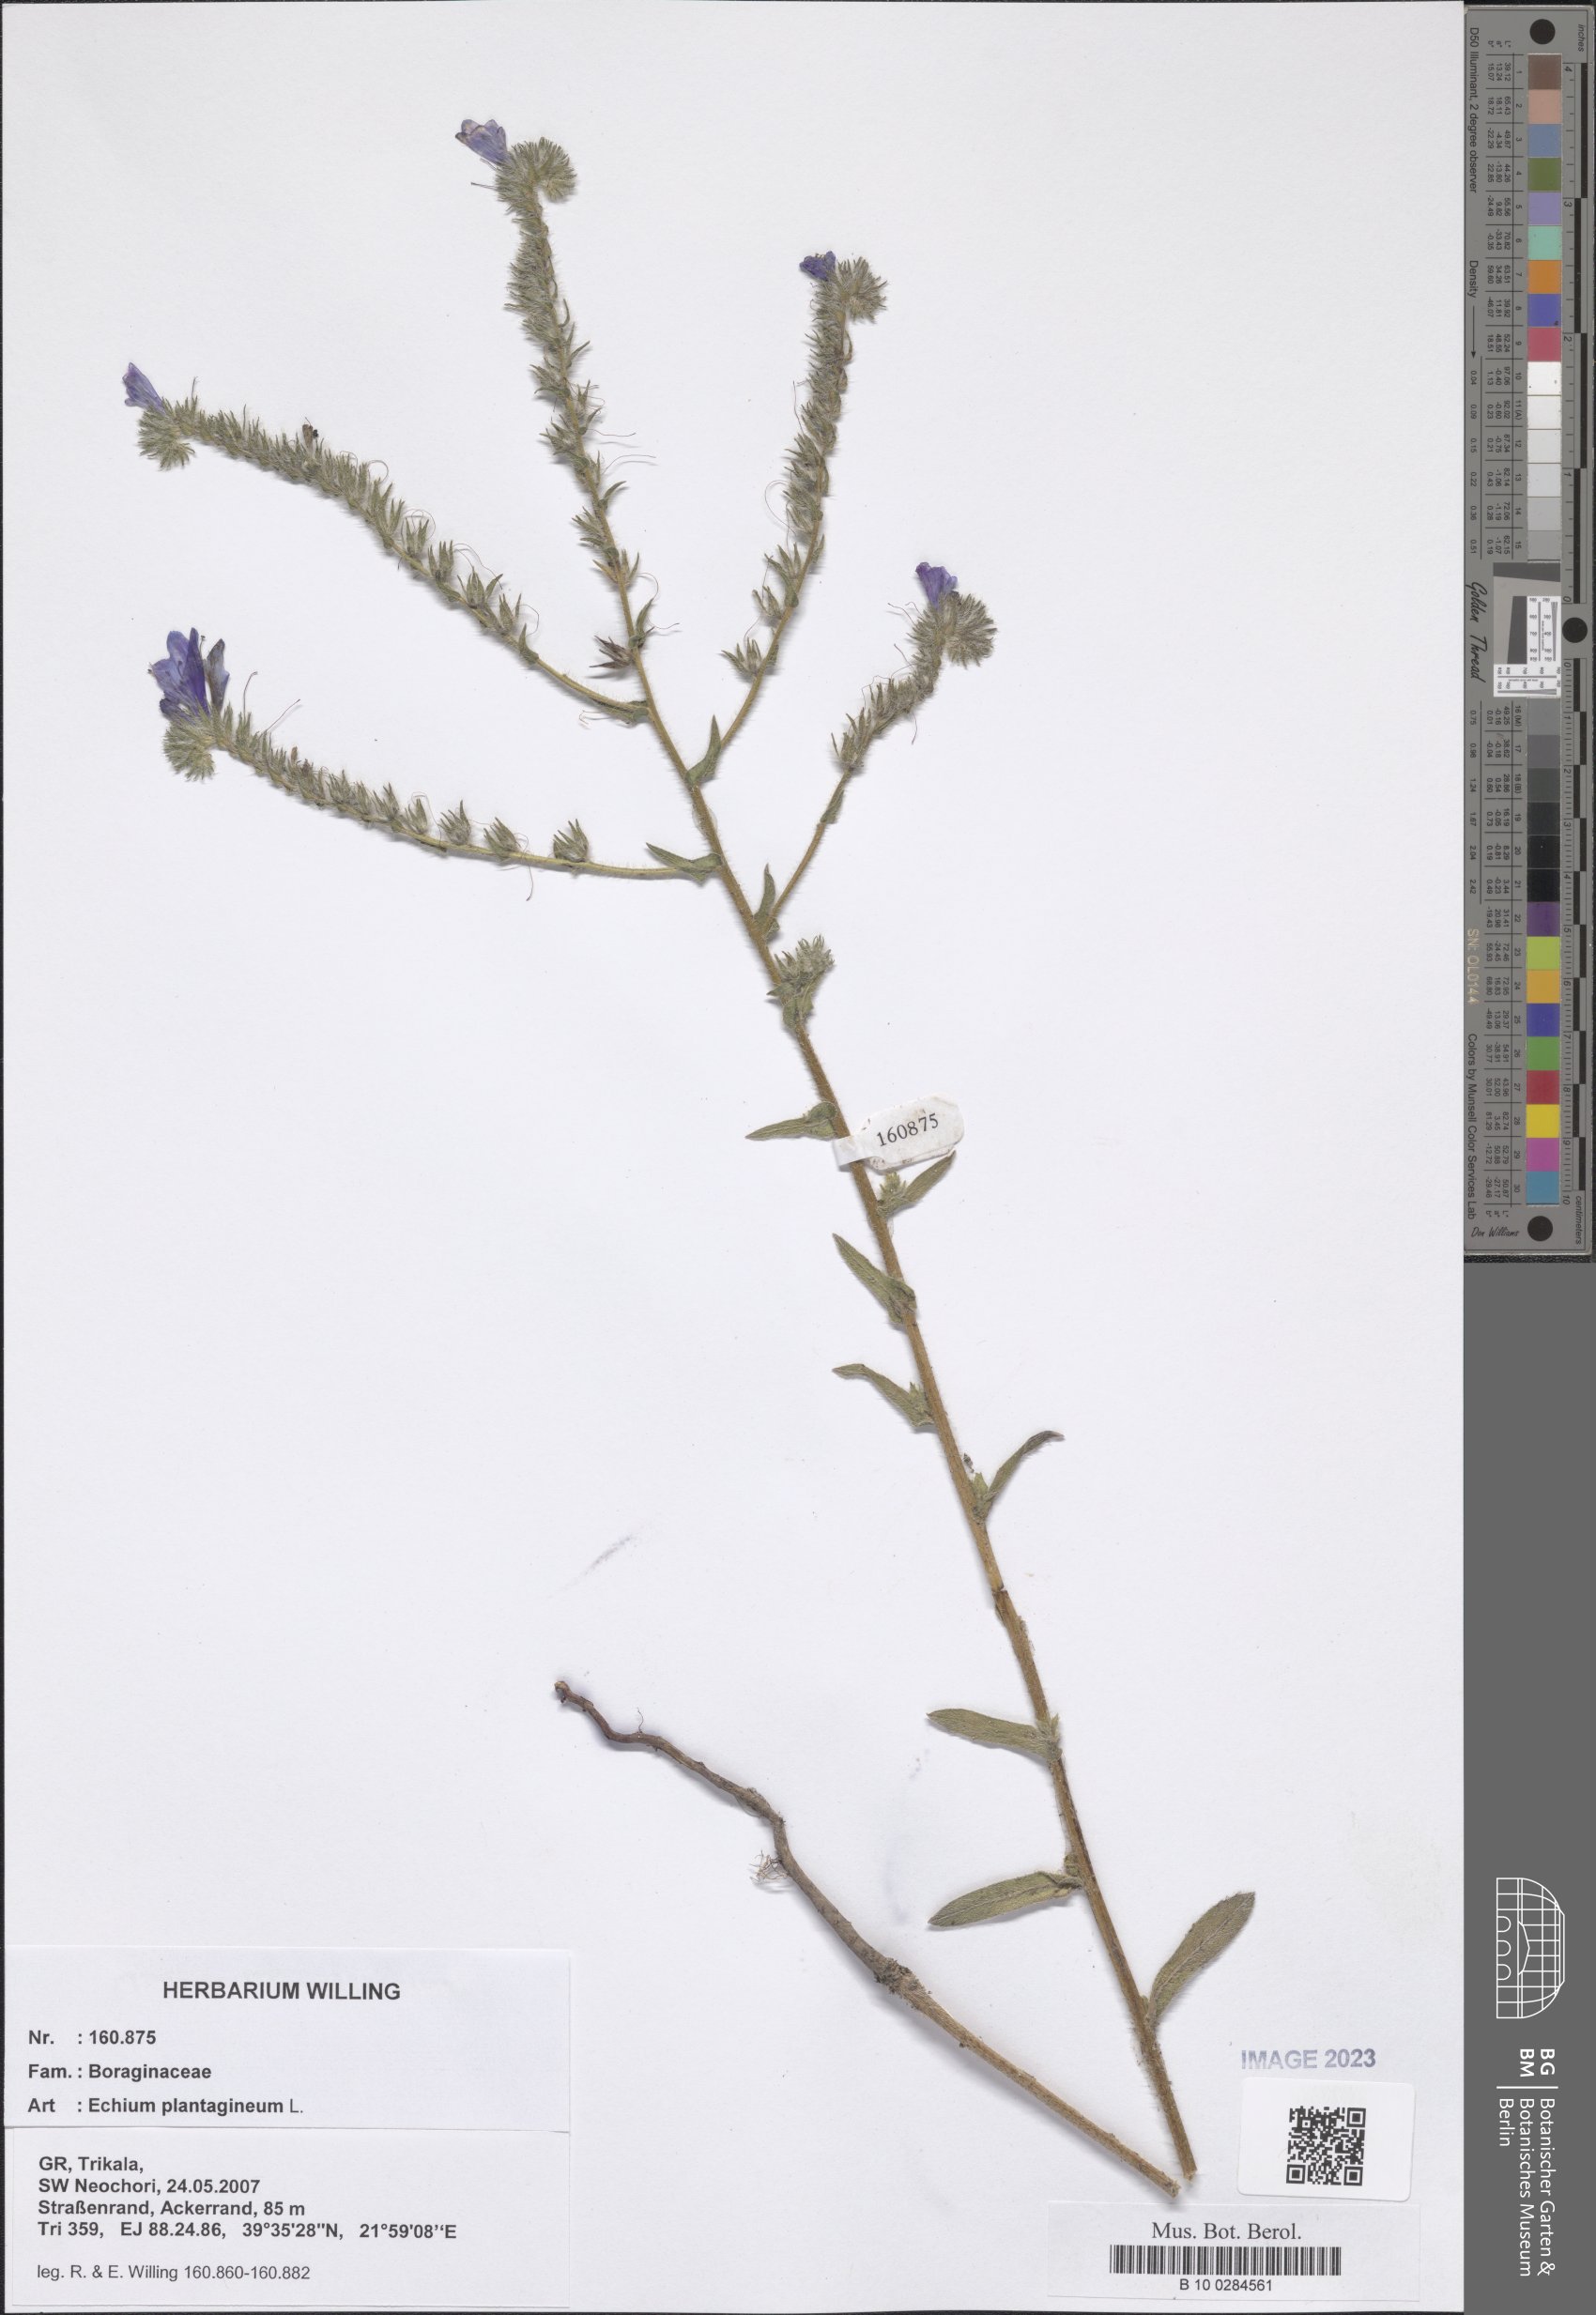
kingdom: Plantae
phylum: Tracheophyta
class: Magnoliopsida
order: Boraginales
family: Boraginaceae
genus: Echium
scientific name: Echium plantagineum
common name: Purple viper's-bugloss
